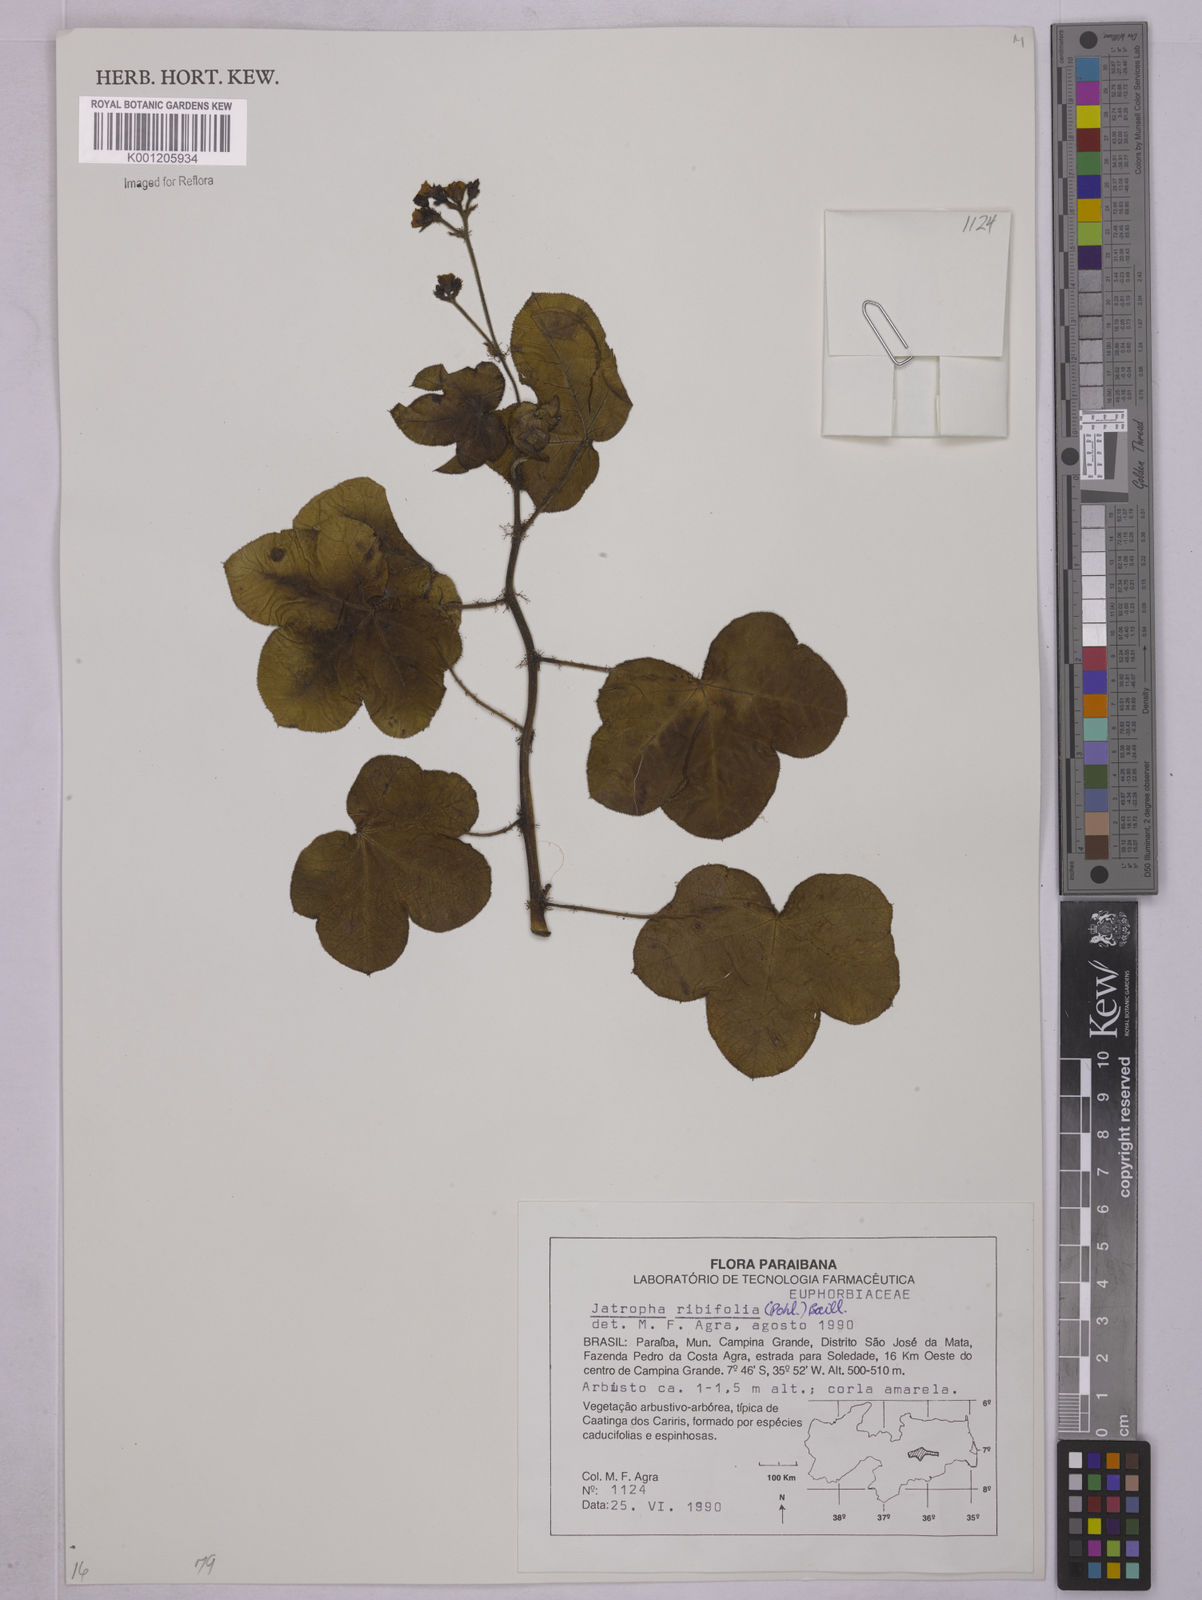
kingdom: Plantae
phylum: Tracheophyta
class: Magnoliopsida
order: Malpighiales
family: Euphorbiaceae
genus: Jatropha
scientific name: Jatropha ribifolia
